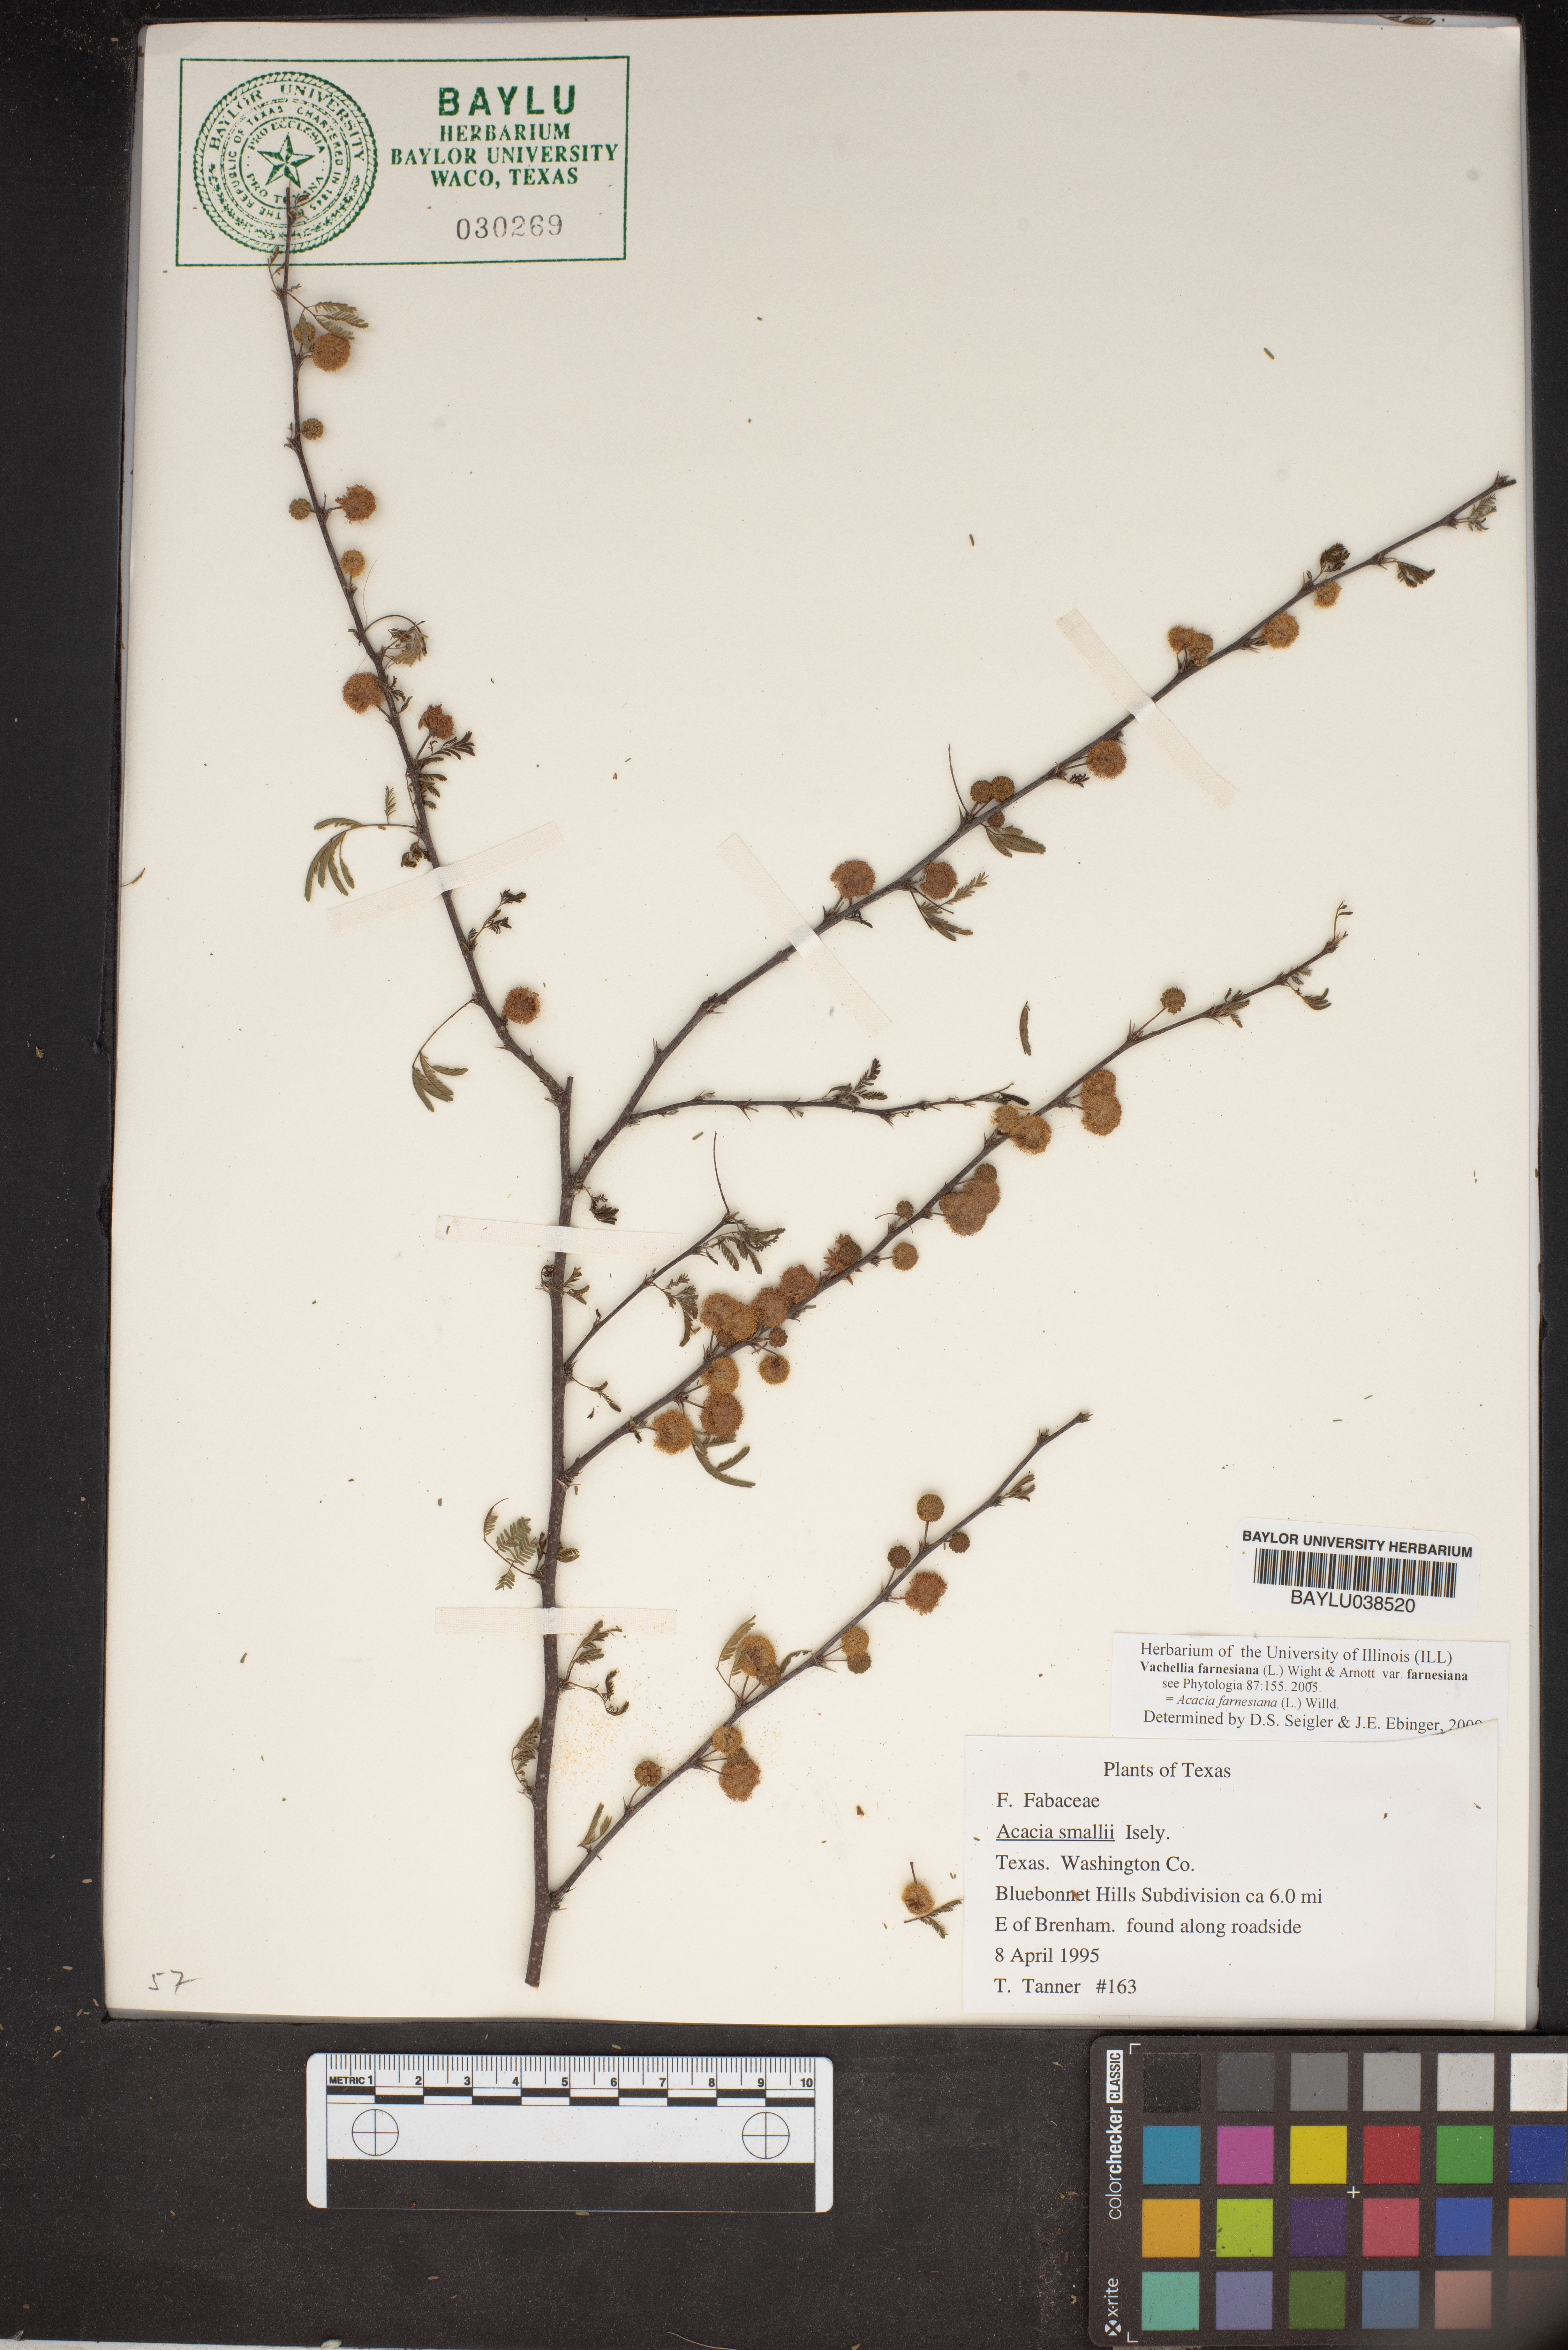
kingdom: Plantae
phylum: Tracheophyta
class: Magnoliopsida
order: Fabales
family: Fabaceae
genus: Vachellia
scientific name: Vachellia farnesiana
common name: Sweet acacia
